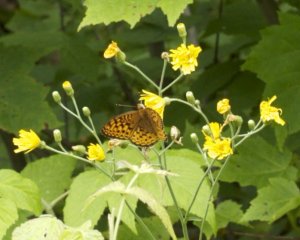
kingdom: Animalia
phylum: Arthropoda
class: Insecta
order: Lepidoptera
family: Nymphalidae
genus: Speyeria
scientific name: Speyeria atlantis
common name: Atlantis Fritillary
